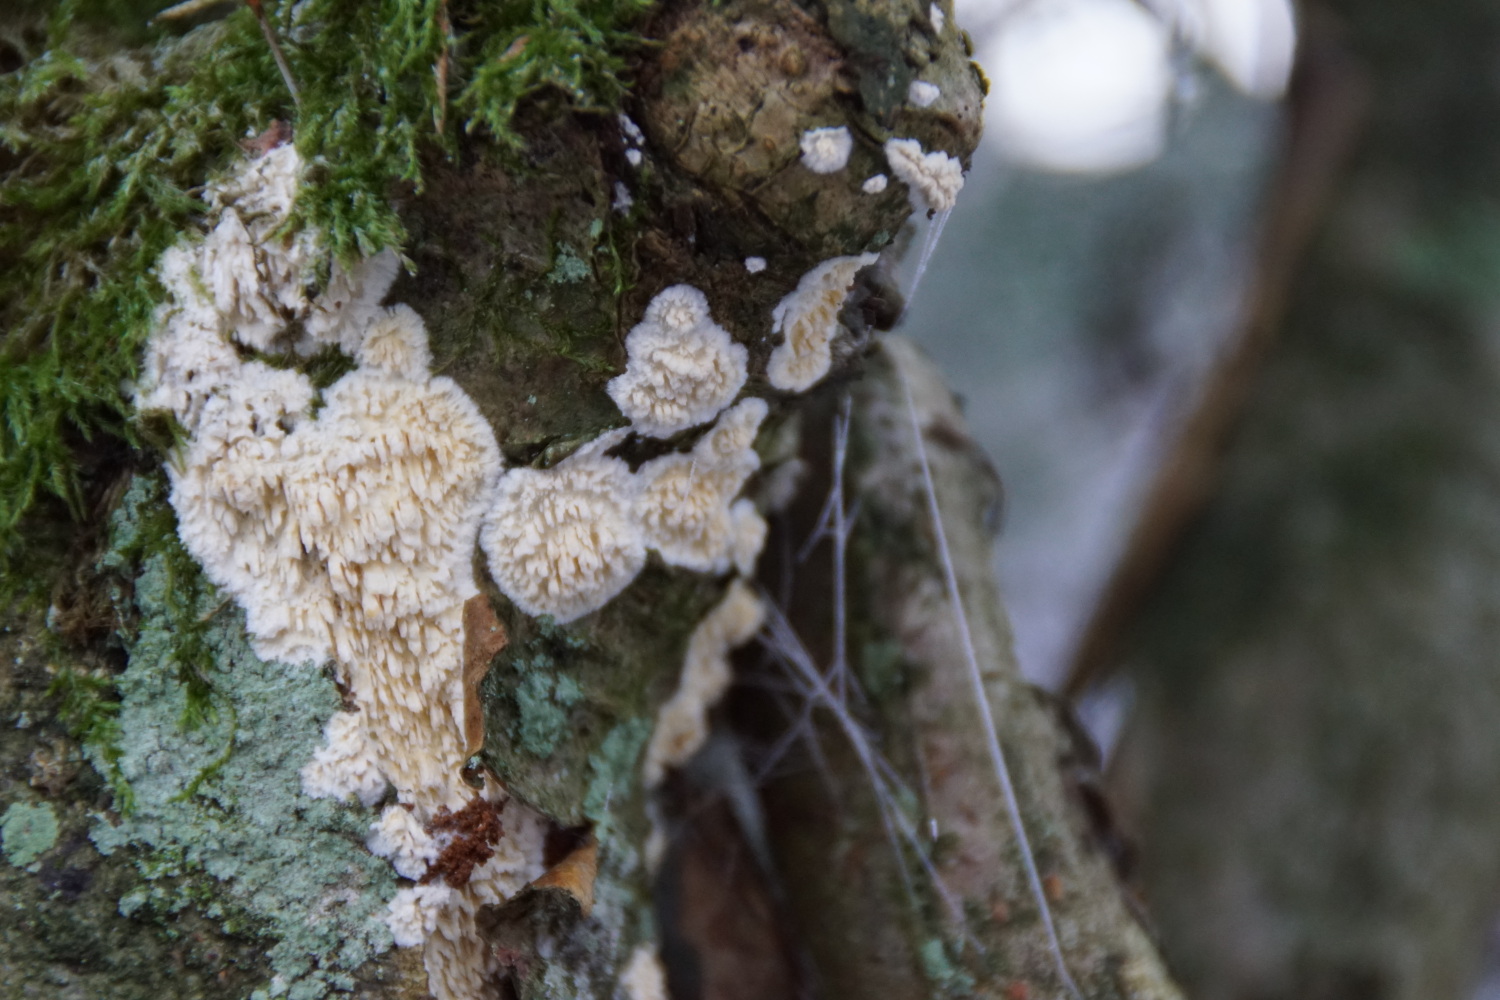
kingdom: Fungi
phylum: Basidiomycota
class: Agaricomycetes
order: Hymenochaetales
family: Schizoporaceae
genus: Xylodon
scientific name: Xylodon radula
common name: grovtandet kalkskind
